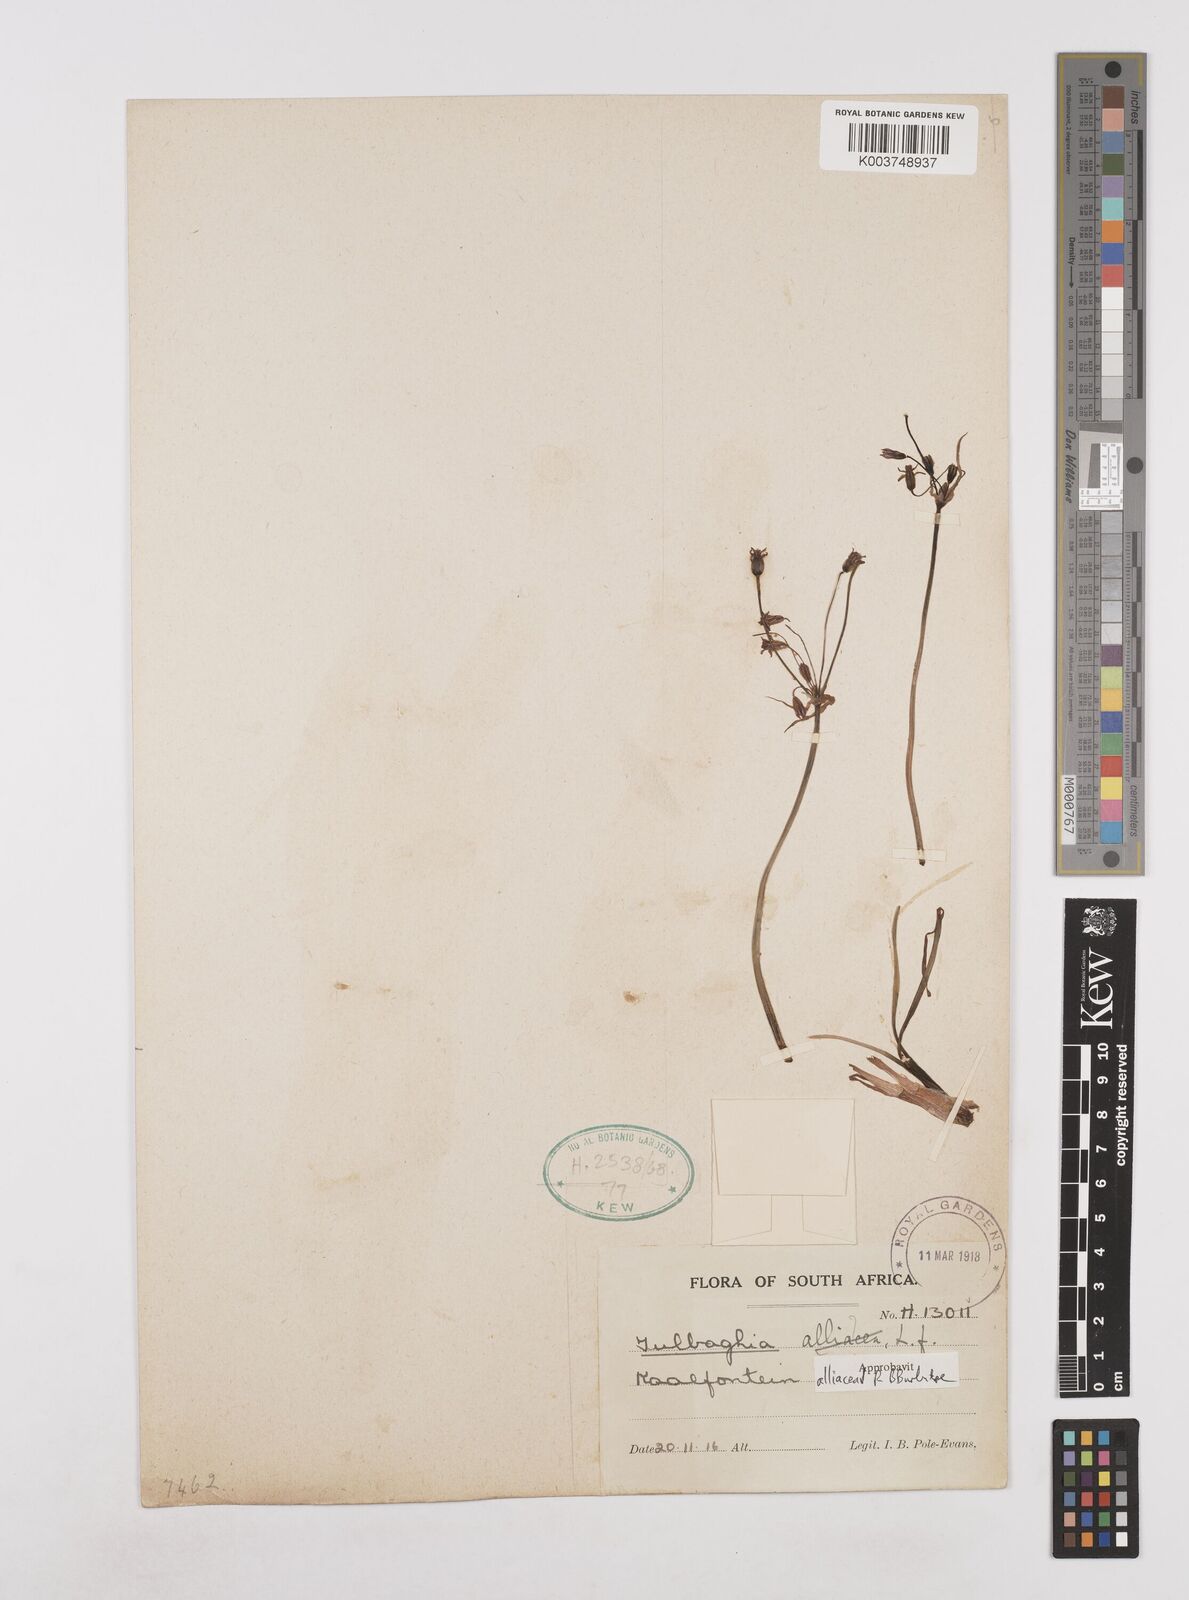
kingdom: Plantae
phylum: Tracheophyta
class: Liliopsida
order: Asparagales
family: Amaryllidaceae
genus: Tulbaghia
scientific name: Tulbaghia alliacea
